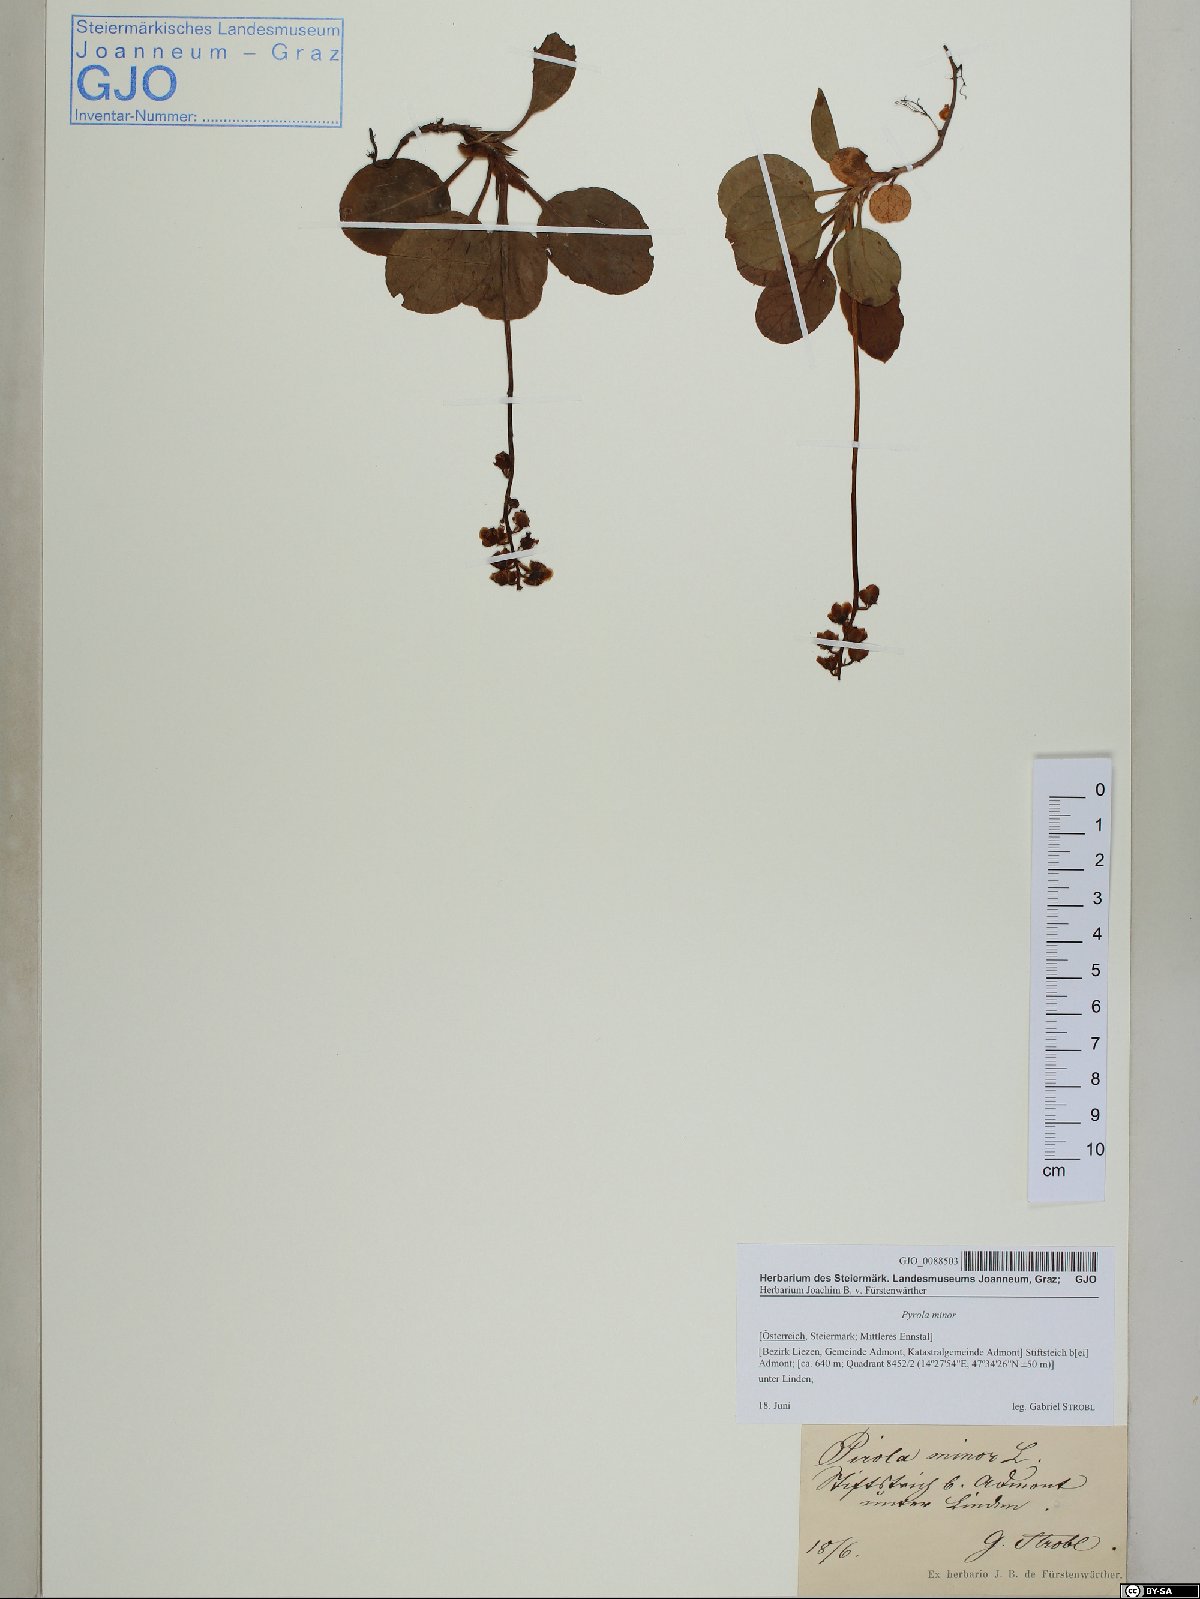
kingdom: Plantae
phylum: Tracheophyta
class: Magnoliopsida
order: Ericales
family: Ericaceae
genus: Pyrola
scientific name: Pyrola minor
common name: Common wintergreen
